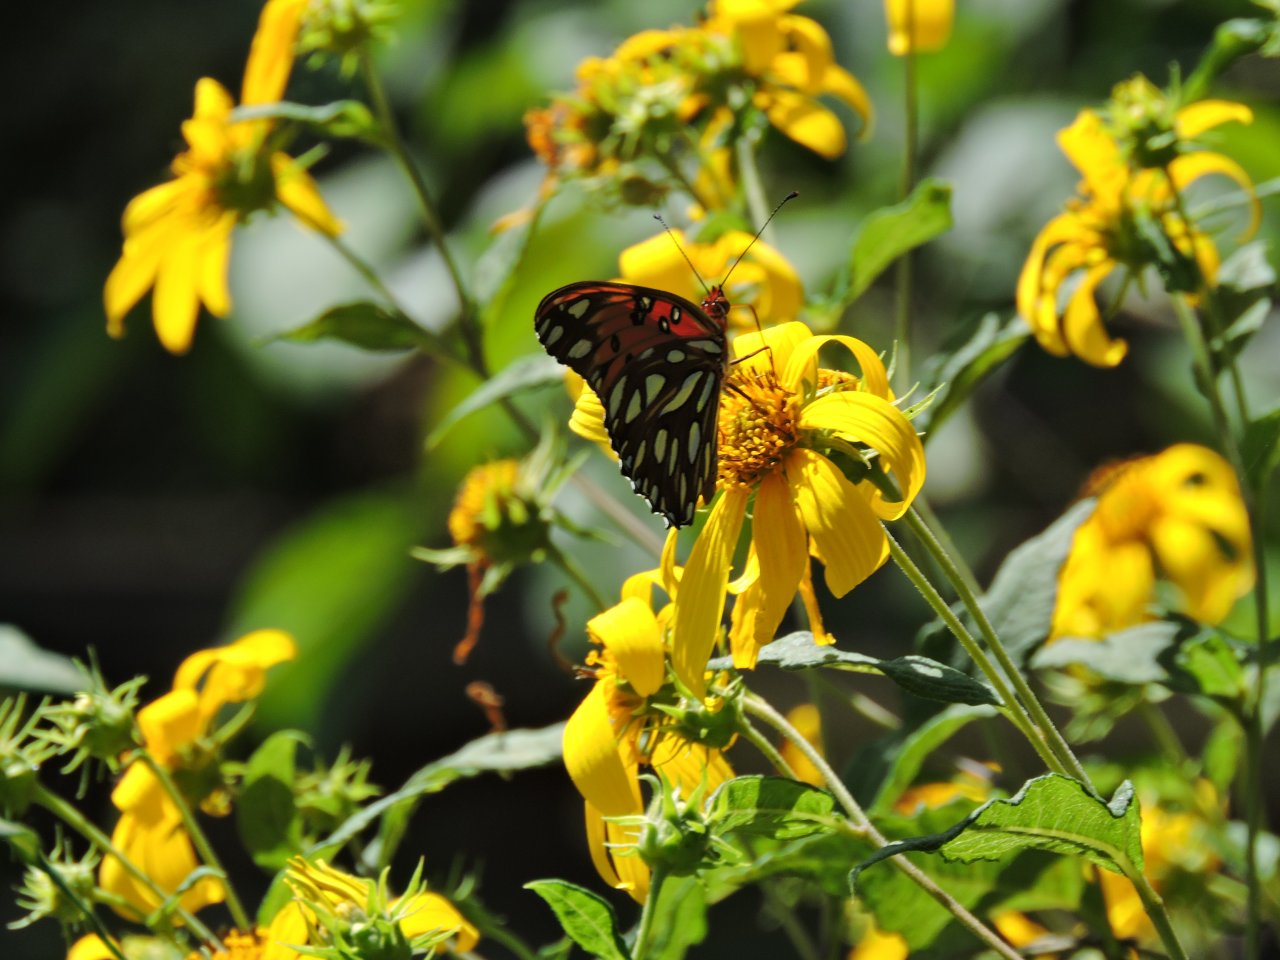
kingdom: Animalia
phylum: Arthropoda
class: Insecta
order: Lepidoptera
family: Nymphalidae
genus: Dione
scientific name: Dione vanillae
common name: Gulf Fritillary
